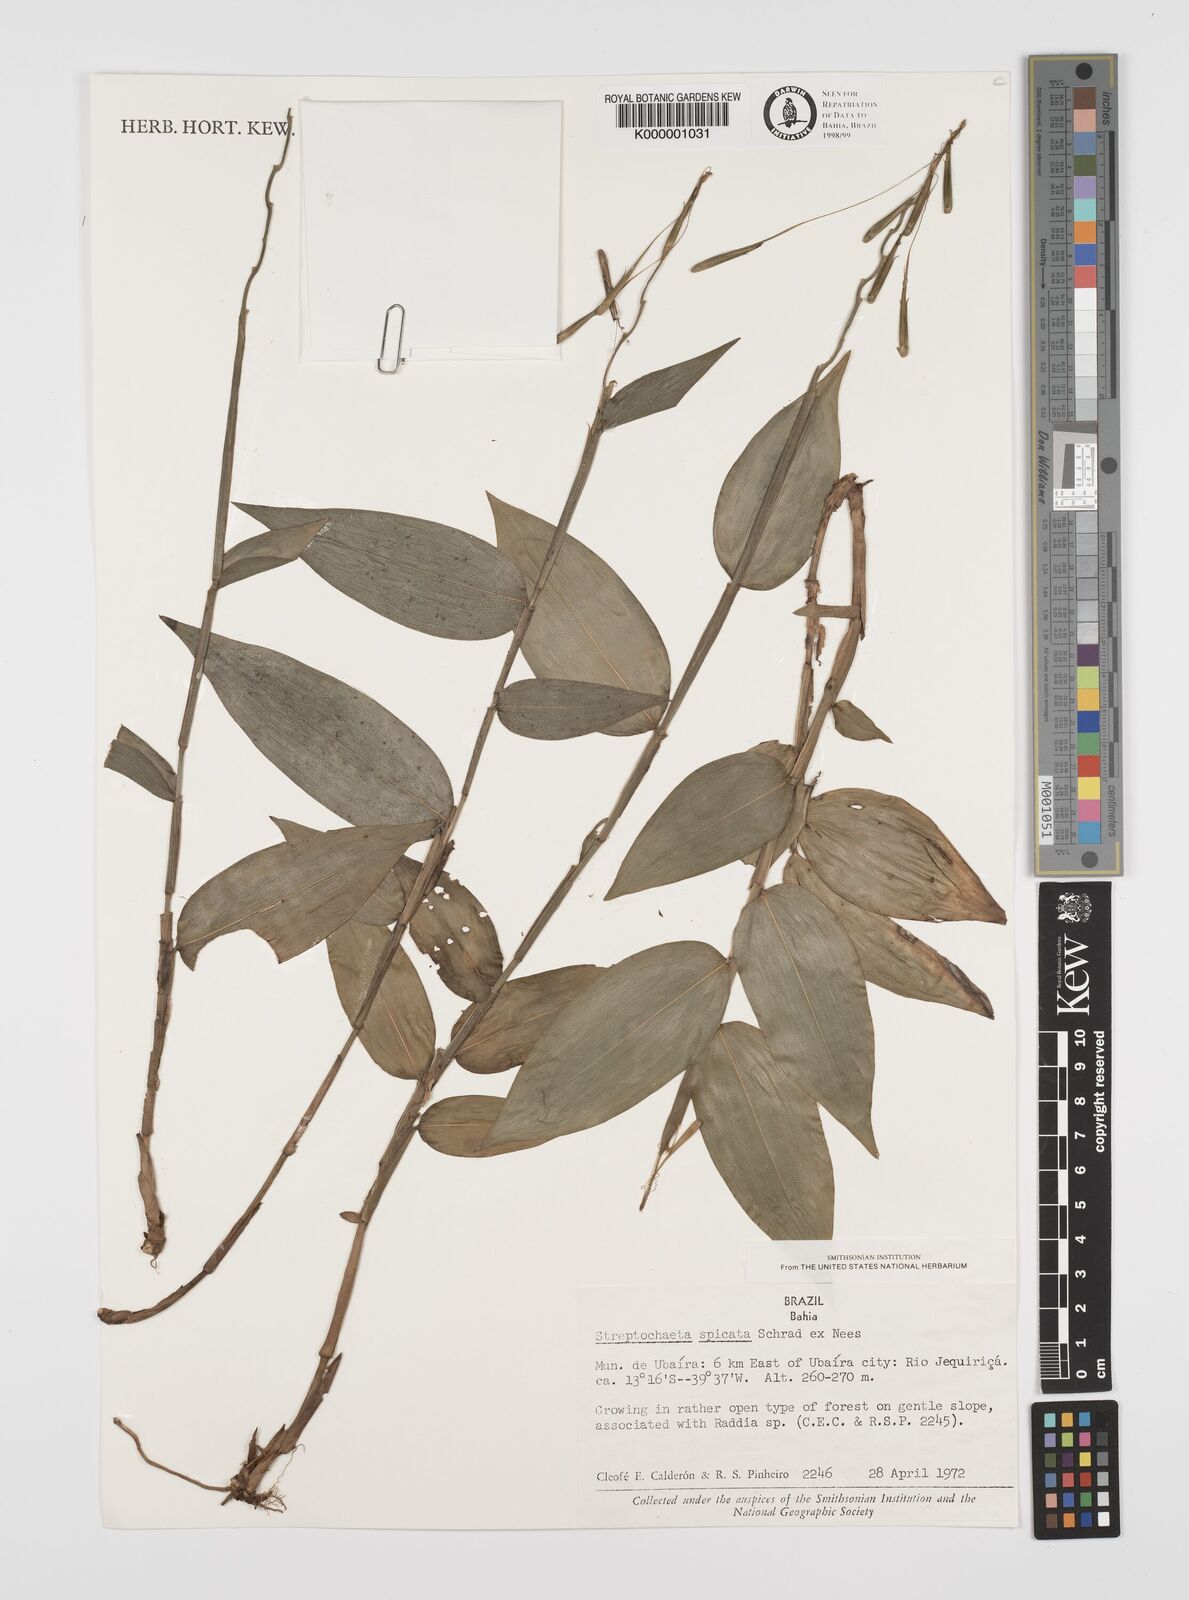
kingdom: Plantae
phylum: Tracheophyta
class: Liliopsida
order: Poales
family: Poaceae
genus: Streptochaeta
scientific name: Streptochaeta spicata
